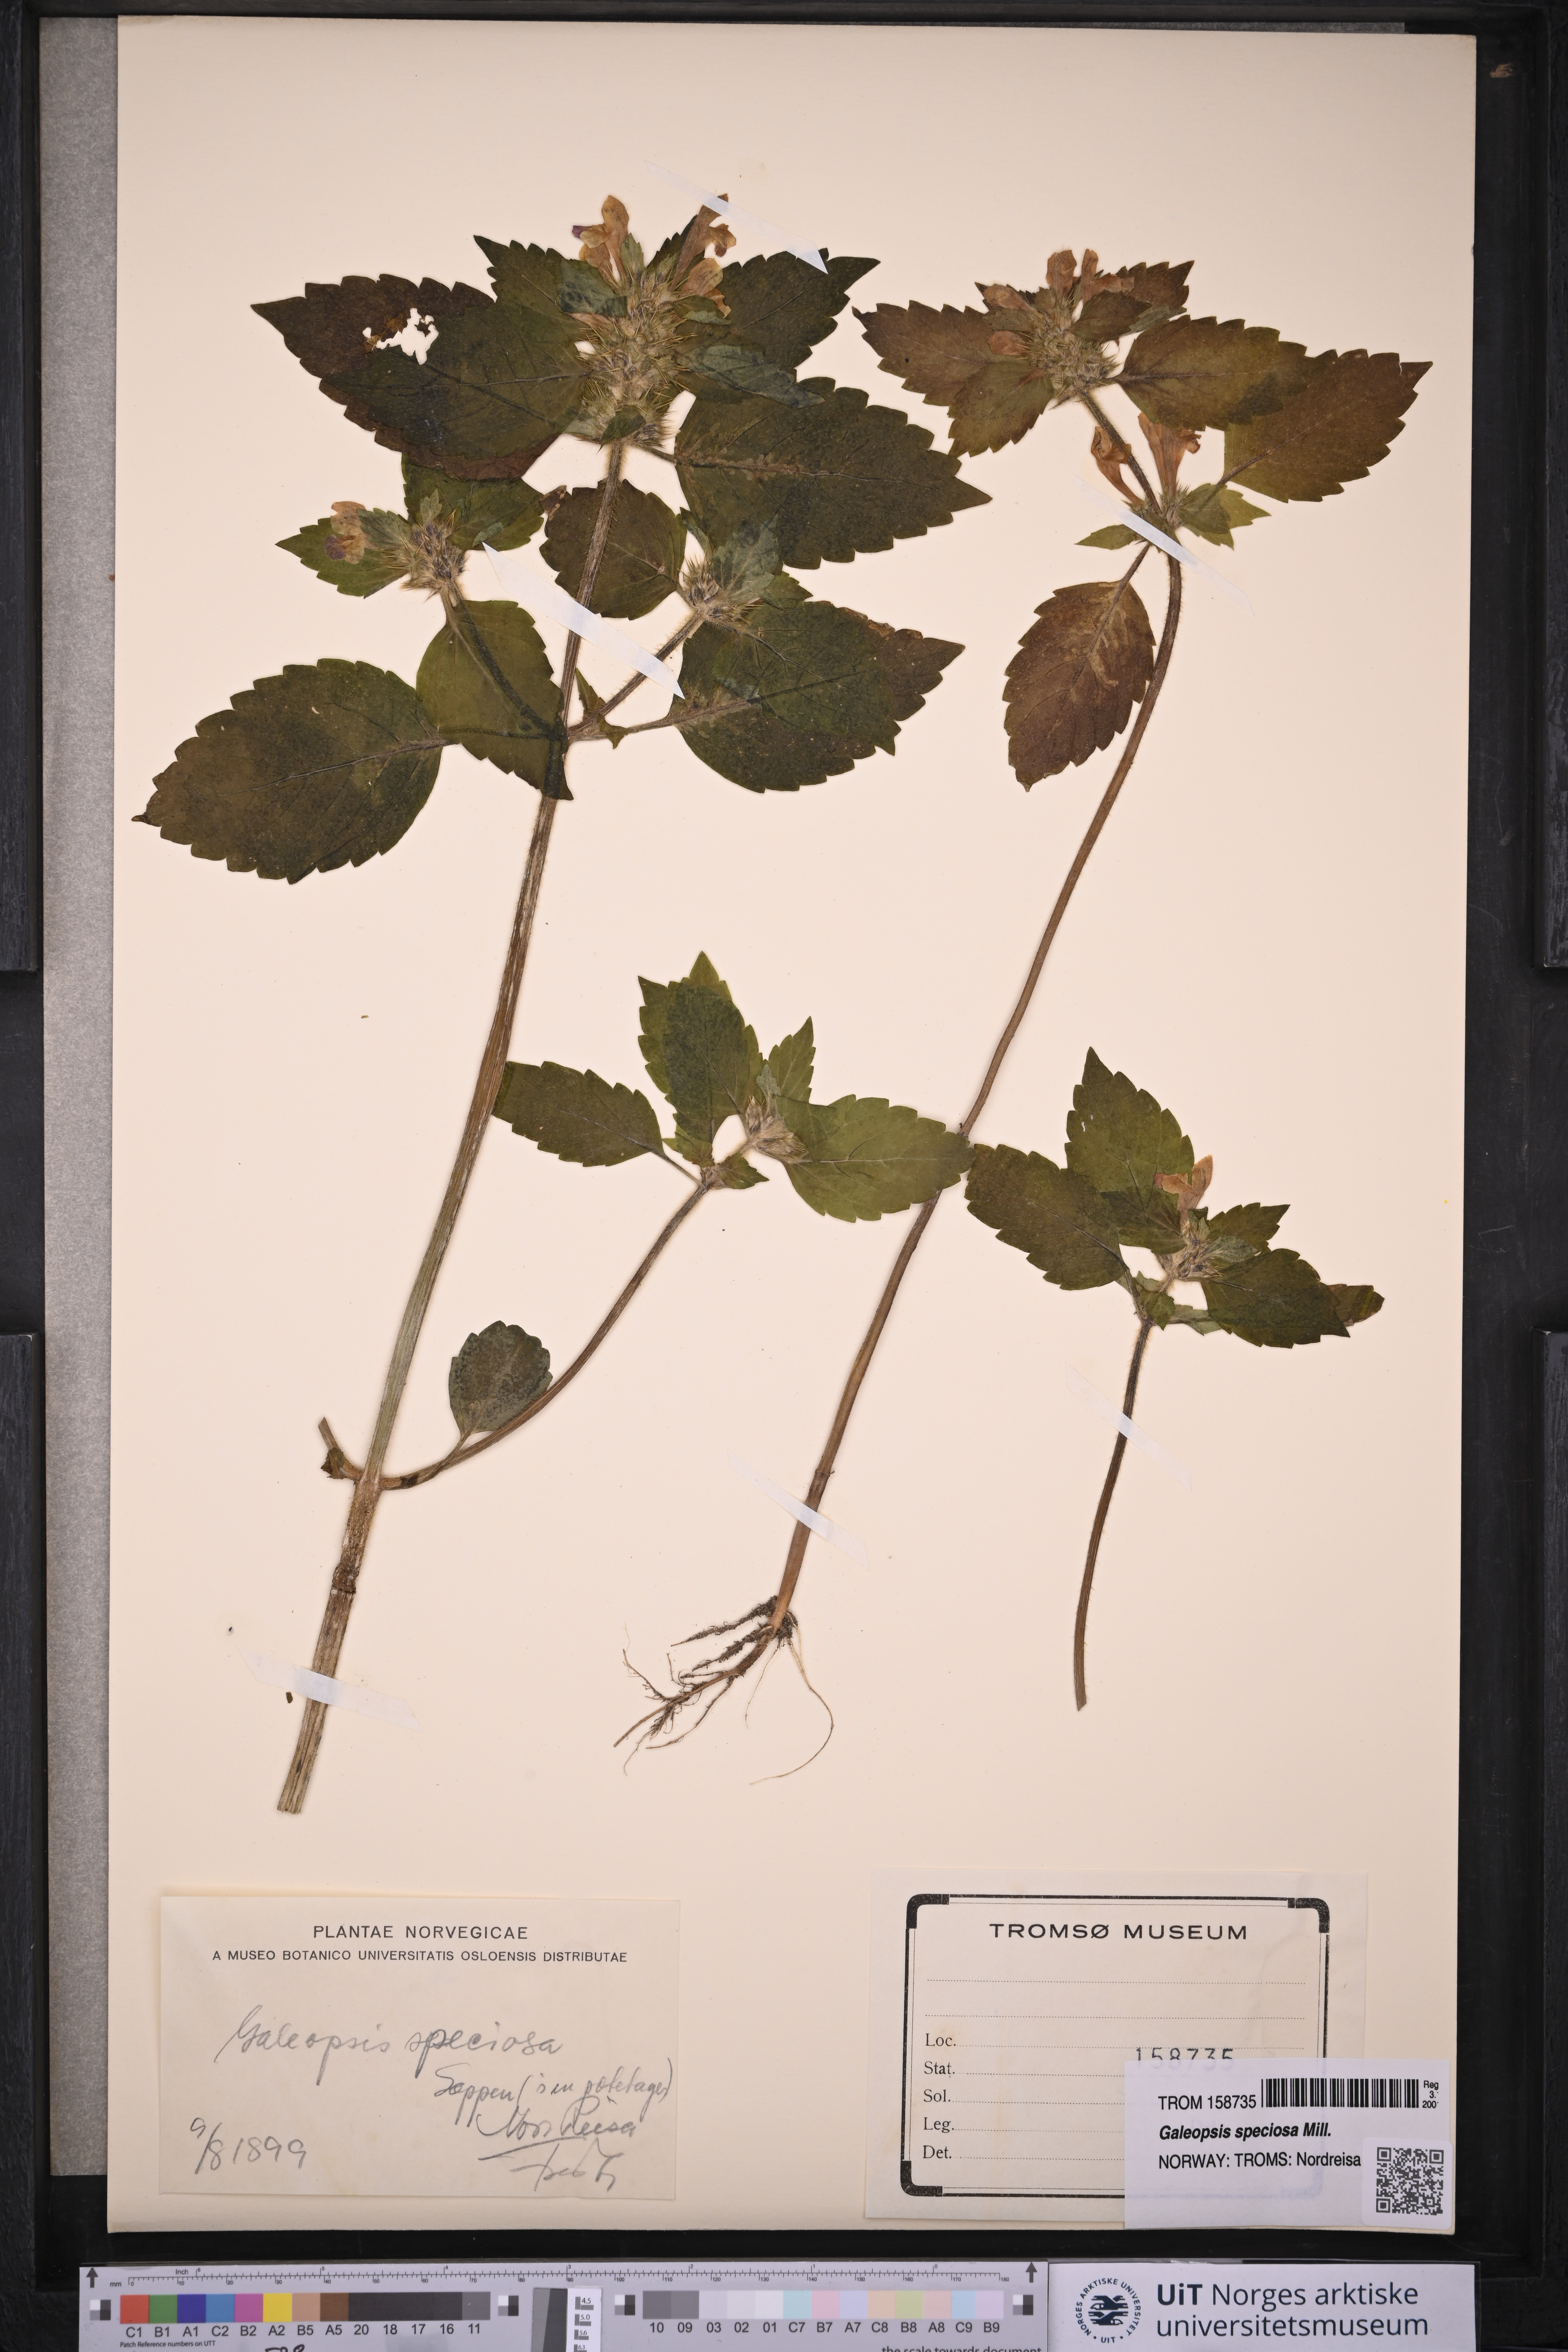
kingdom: Plantae
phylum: Tracheophyta
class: Magnoliopsida
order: Lamiales
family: Lamiaceae
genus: Galeopsis
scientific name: Galeopsis speciosa
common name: Large-flowered hemp-nettle
